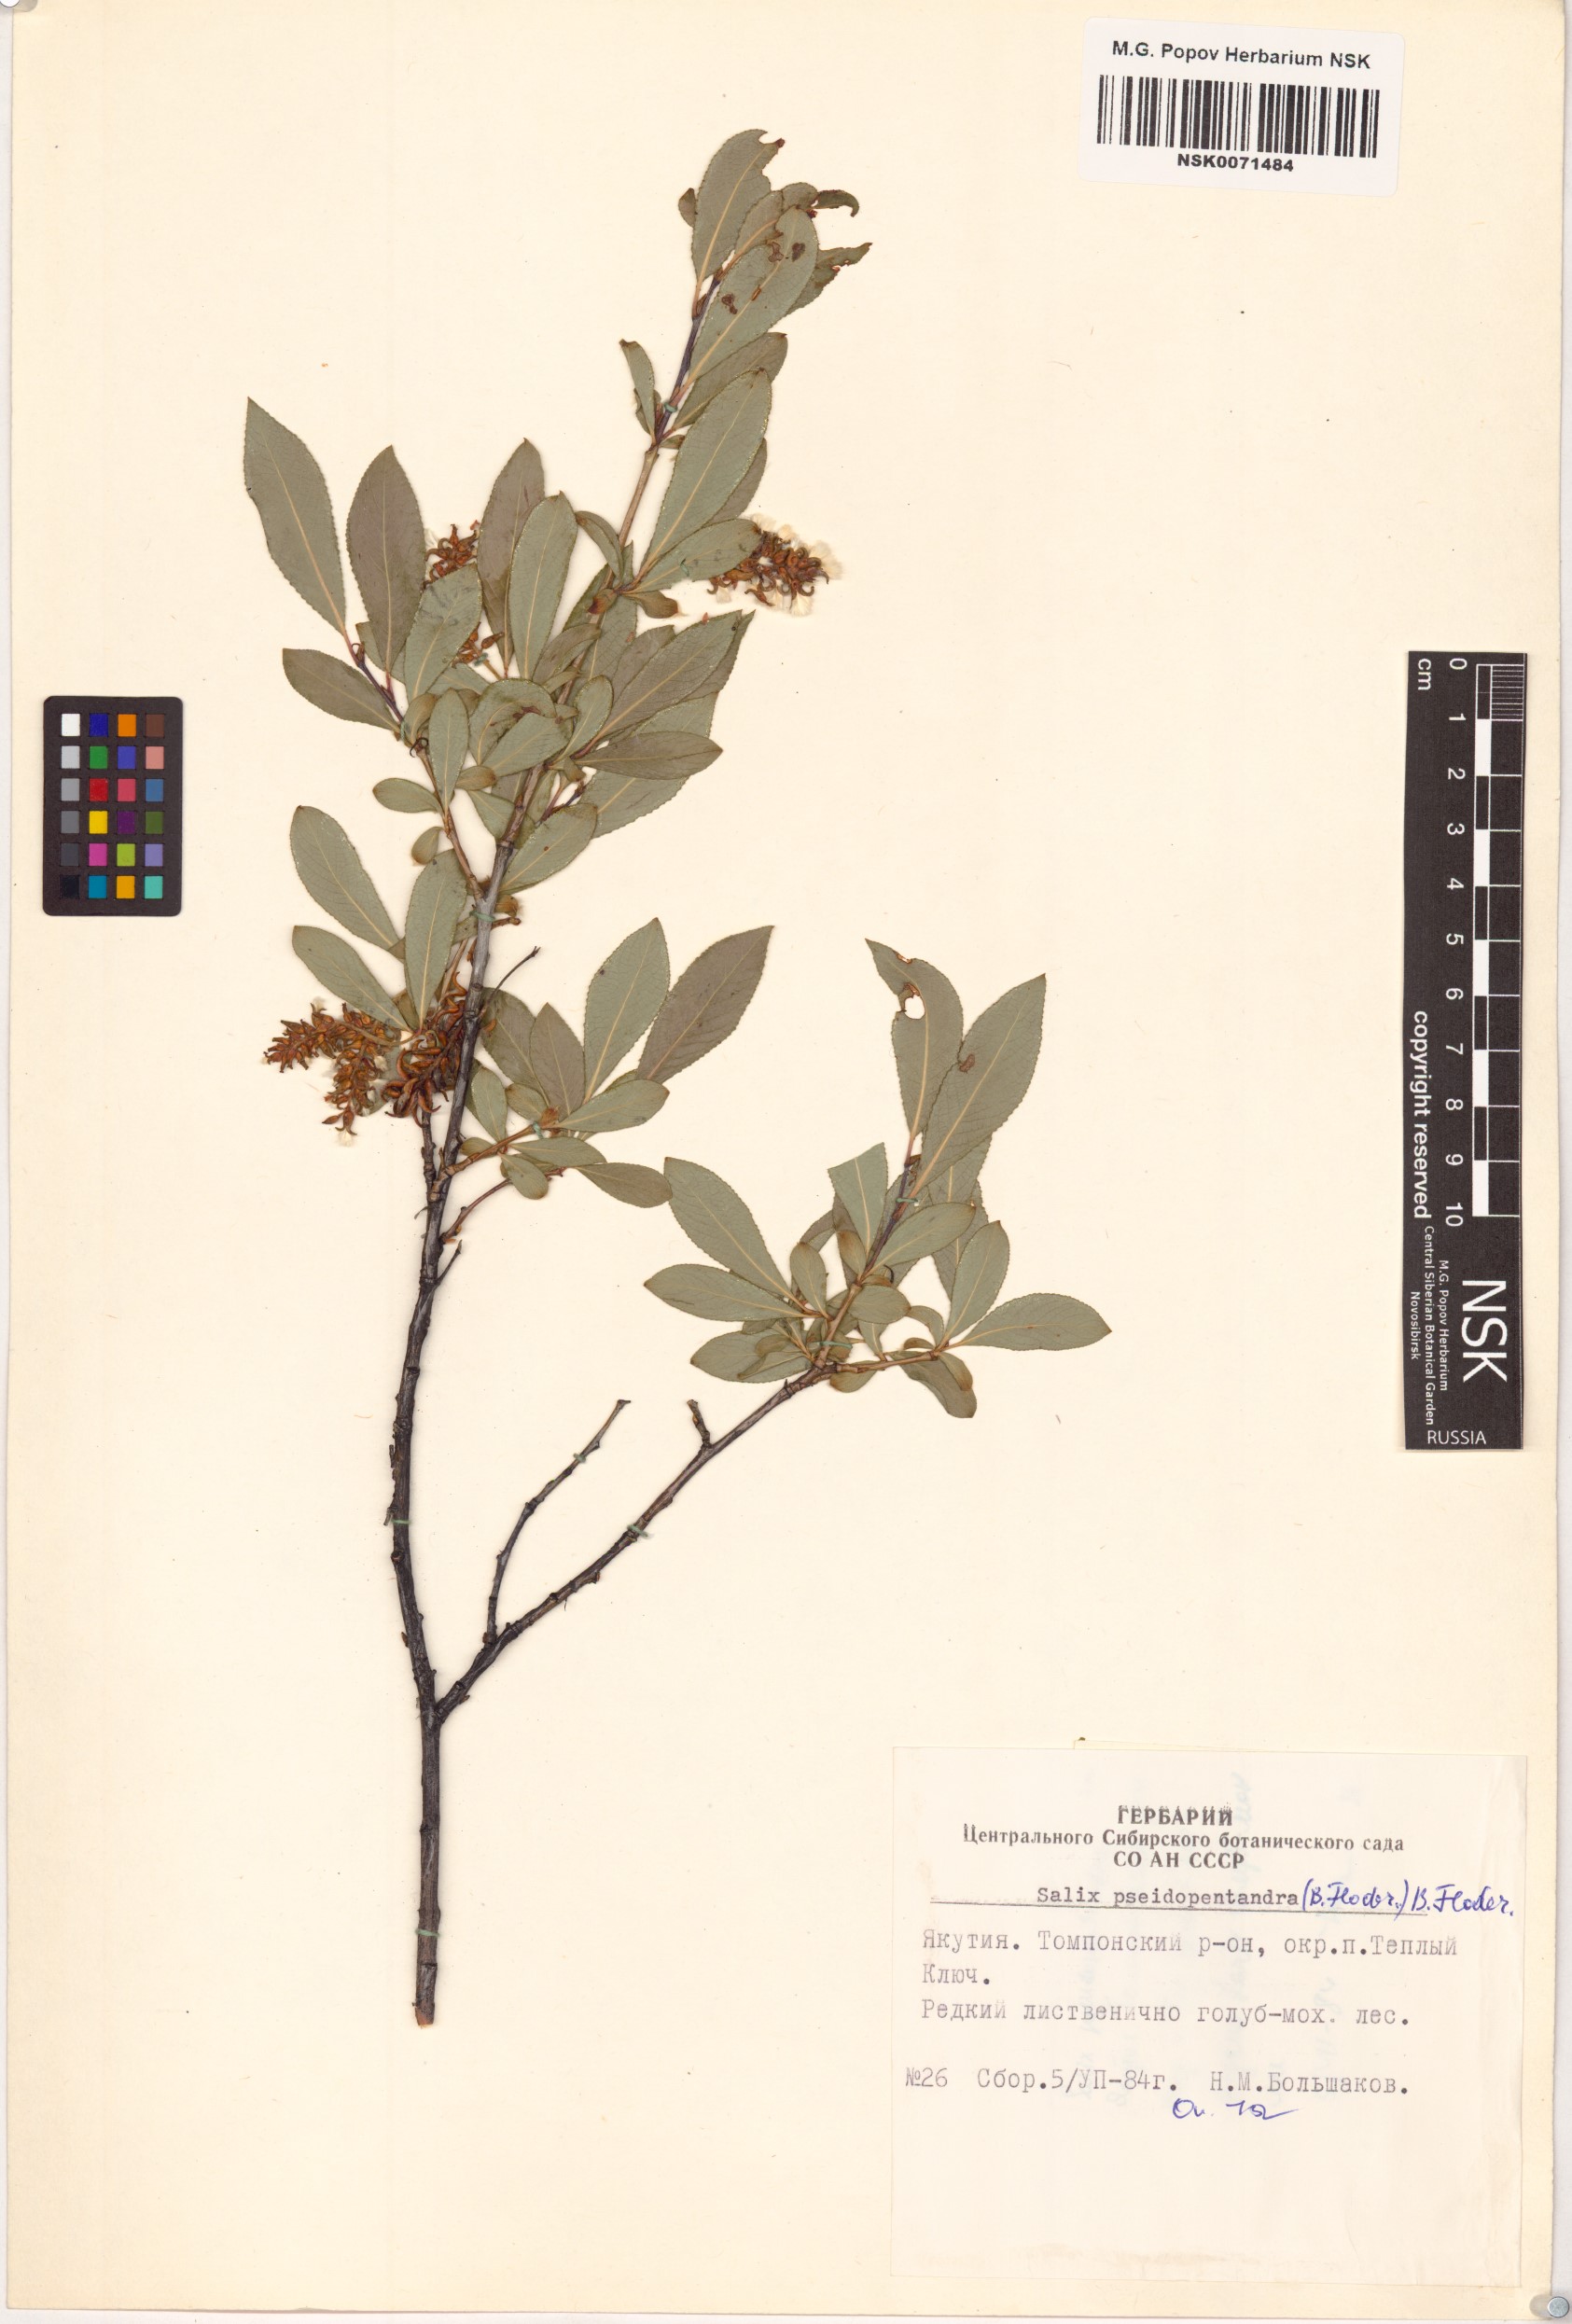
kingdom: Plantae
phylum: Tracheophyta
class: Magnoliopsida
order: Malpighiales
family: Salicaceae
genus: Salix
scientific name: Salix pseudopentandra
